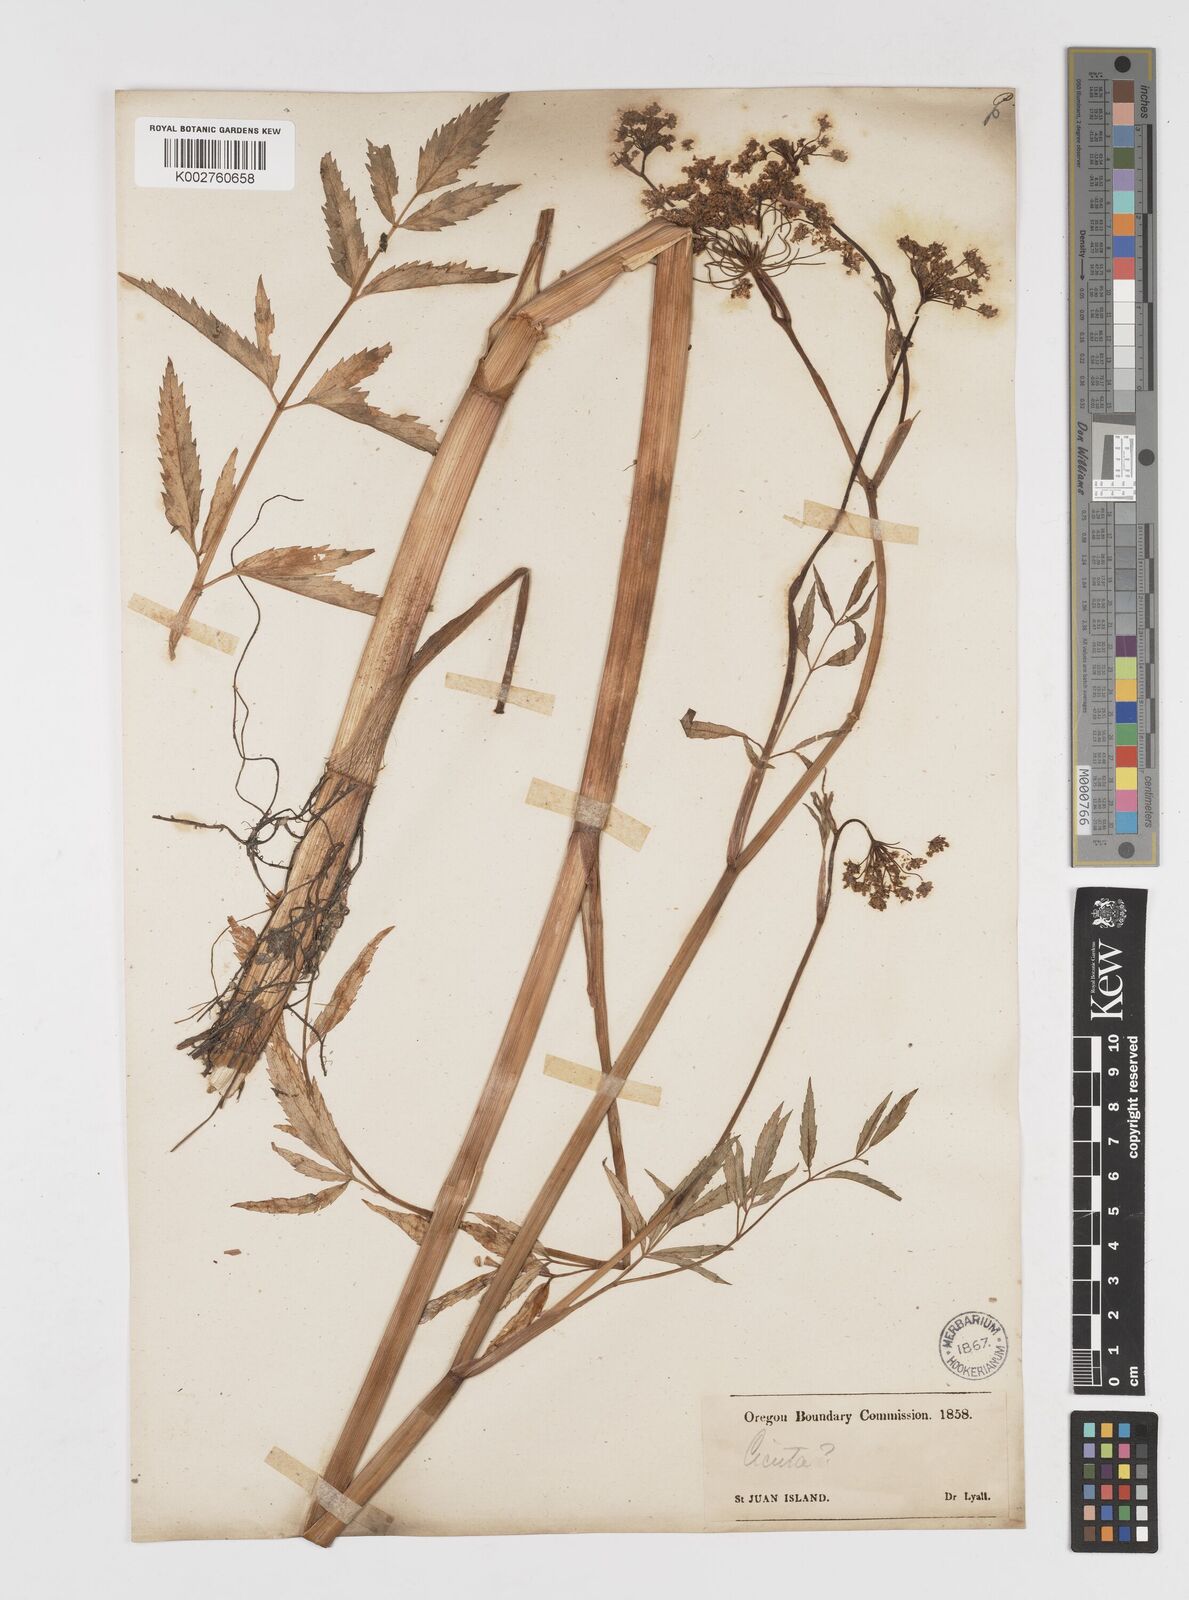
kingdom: Plantae
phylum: Tracheophyta
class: Magnoliopsida
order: Apiales
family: Apiaceae
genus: Cicuta
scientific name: Cicuta douglasii
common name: Western water-hemlock
